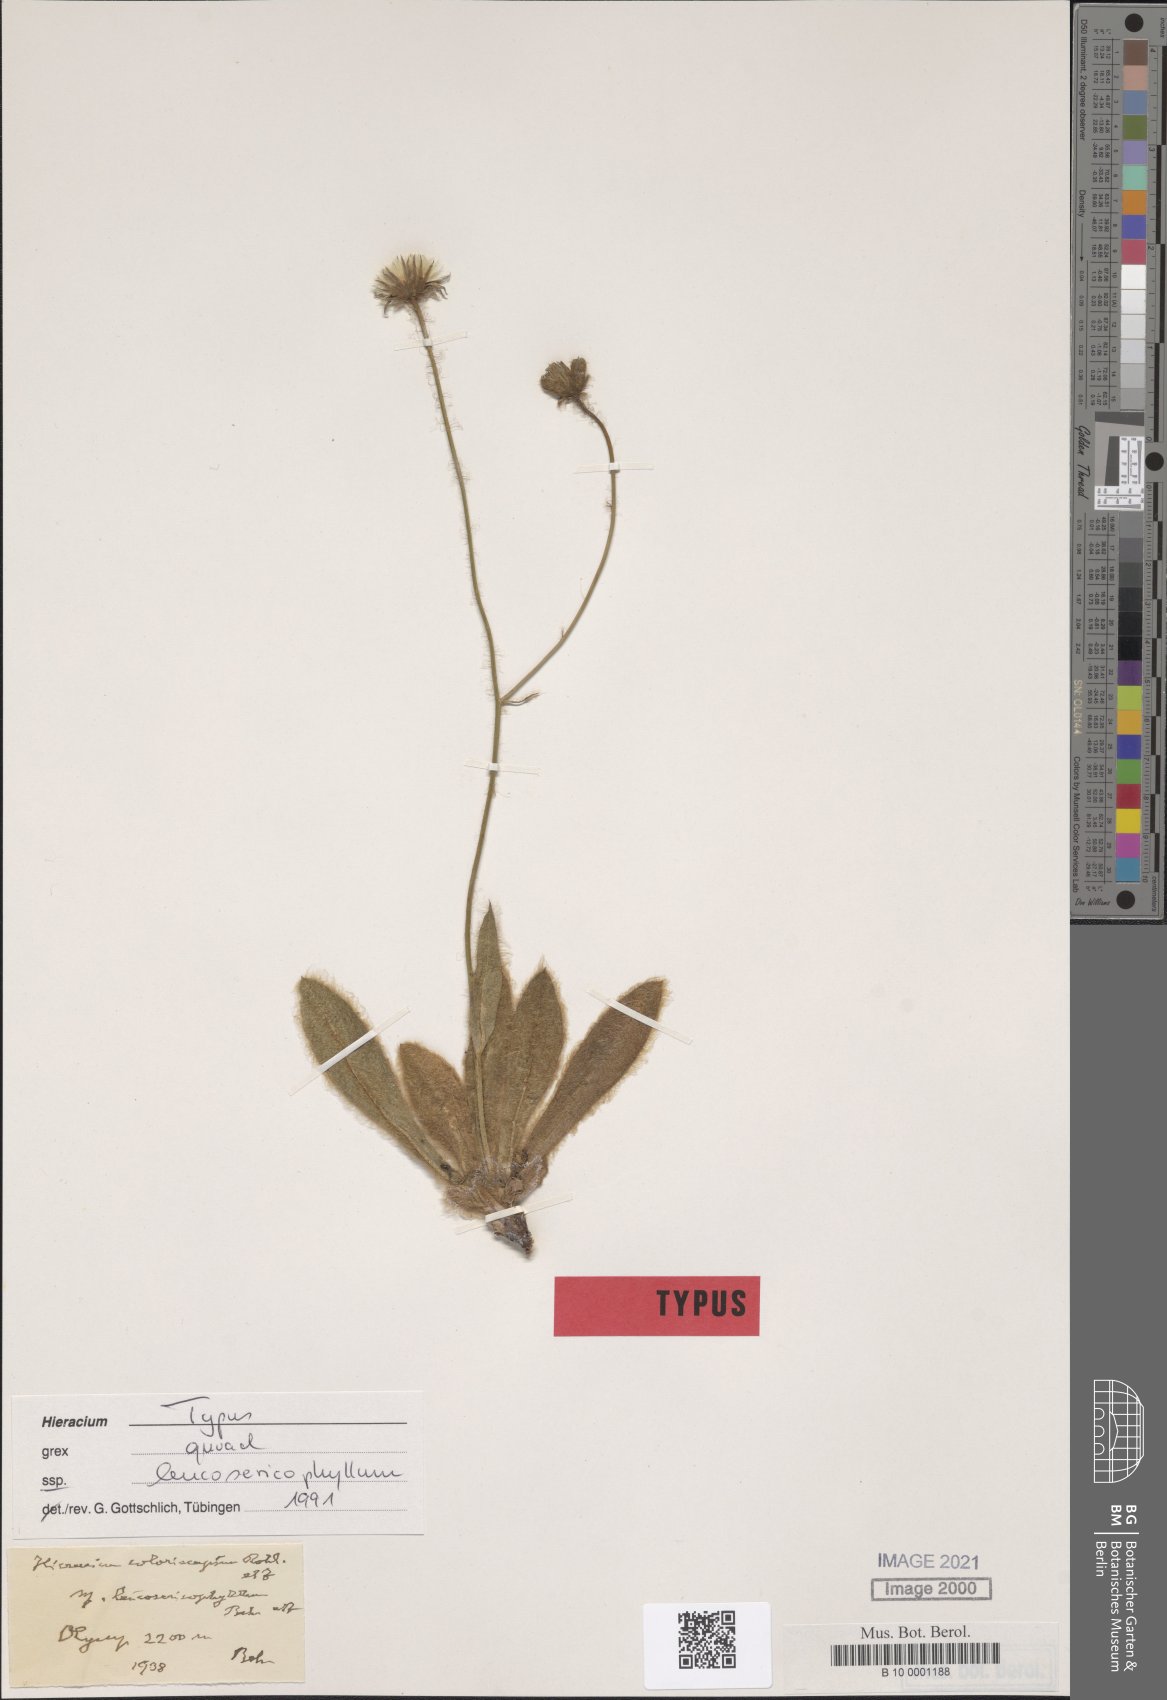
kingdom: Plantae
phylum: Tracheophyta
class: Magnoliopsida
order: Asterales
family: Asteraceae
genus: Hieracium
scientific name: Hieracium coloriscapum
